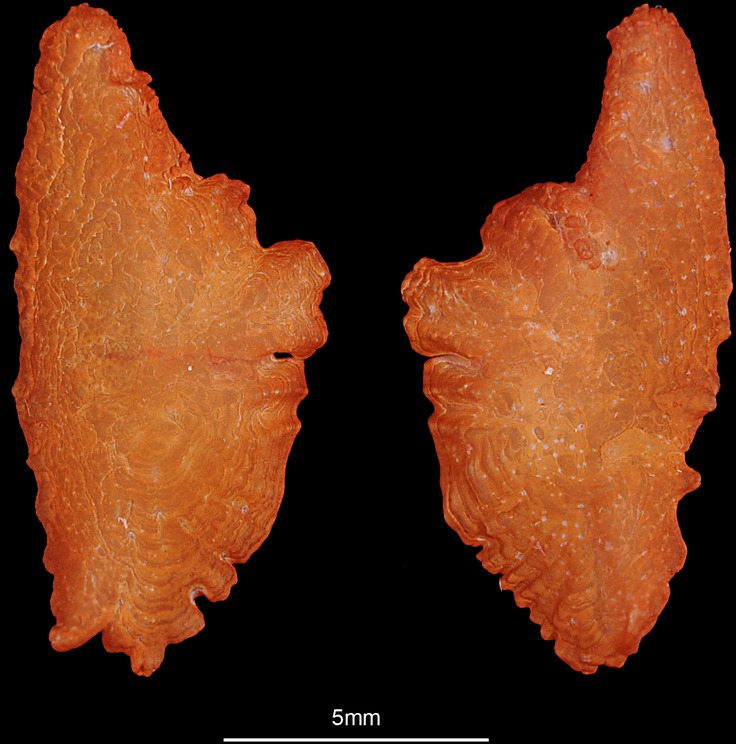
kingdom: Animalia
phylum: Chordata
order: Perciformes
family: Centrarchidae
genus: Micropterus
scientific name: Micropterus dolomieu
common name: Smallmouth bass
